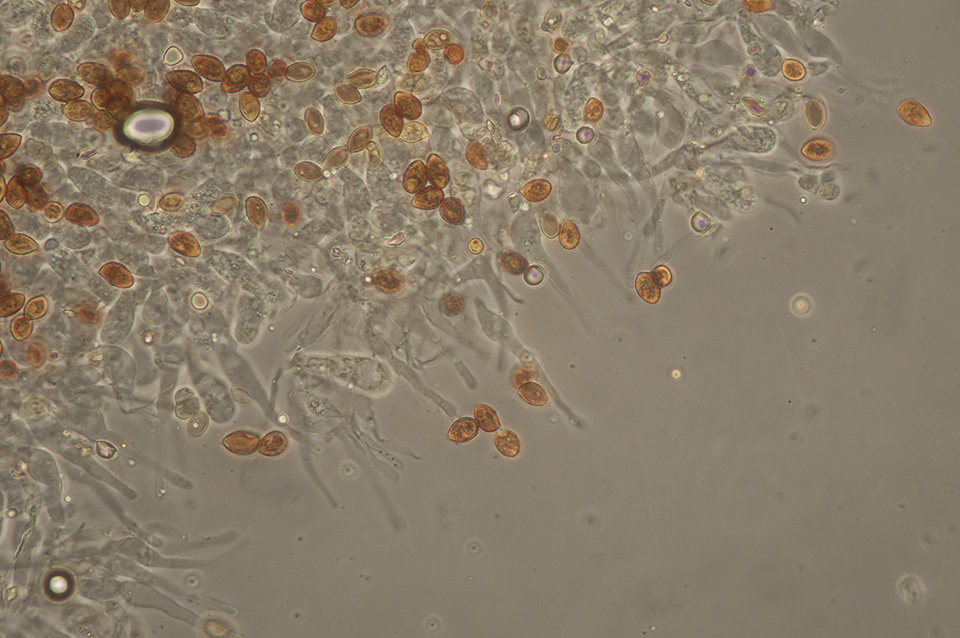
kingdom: Fungi
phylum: Basidiomycota
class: Agaricomycetes
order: Agaricales
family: Hymenogastraceae
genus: Galerina
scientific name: Galerina esteve-raventosii
